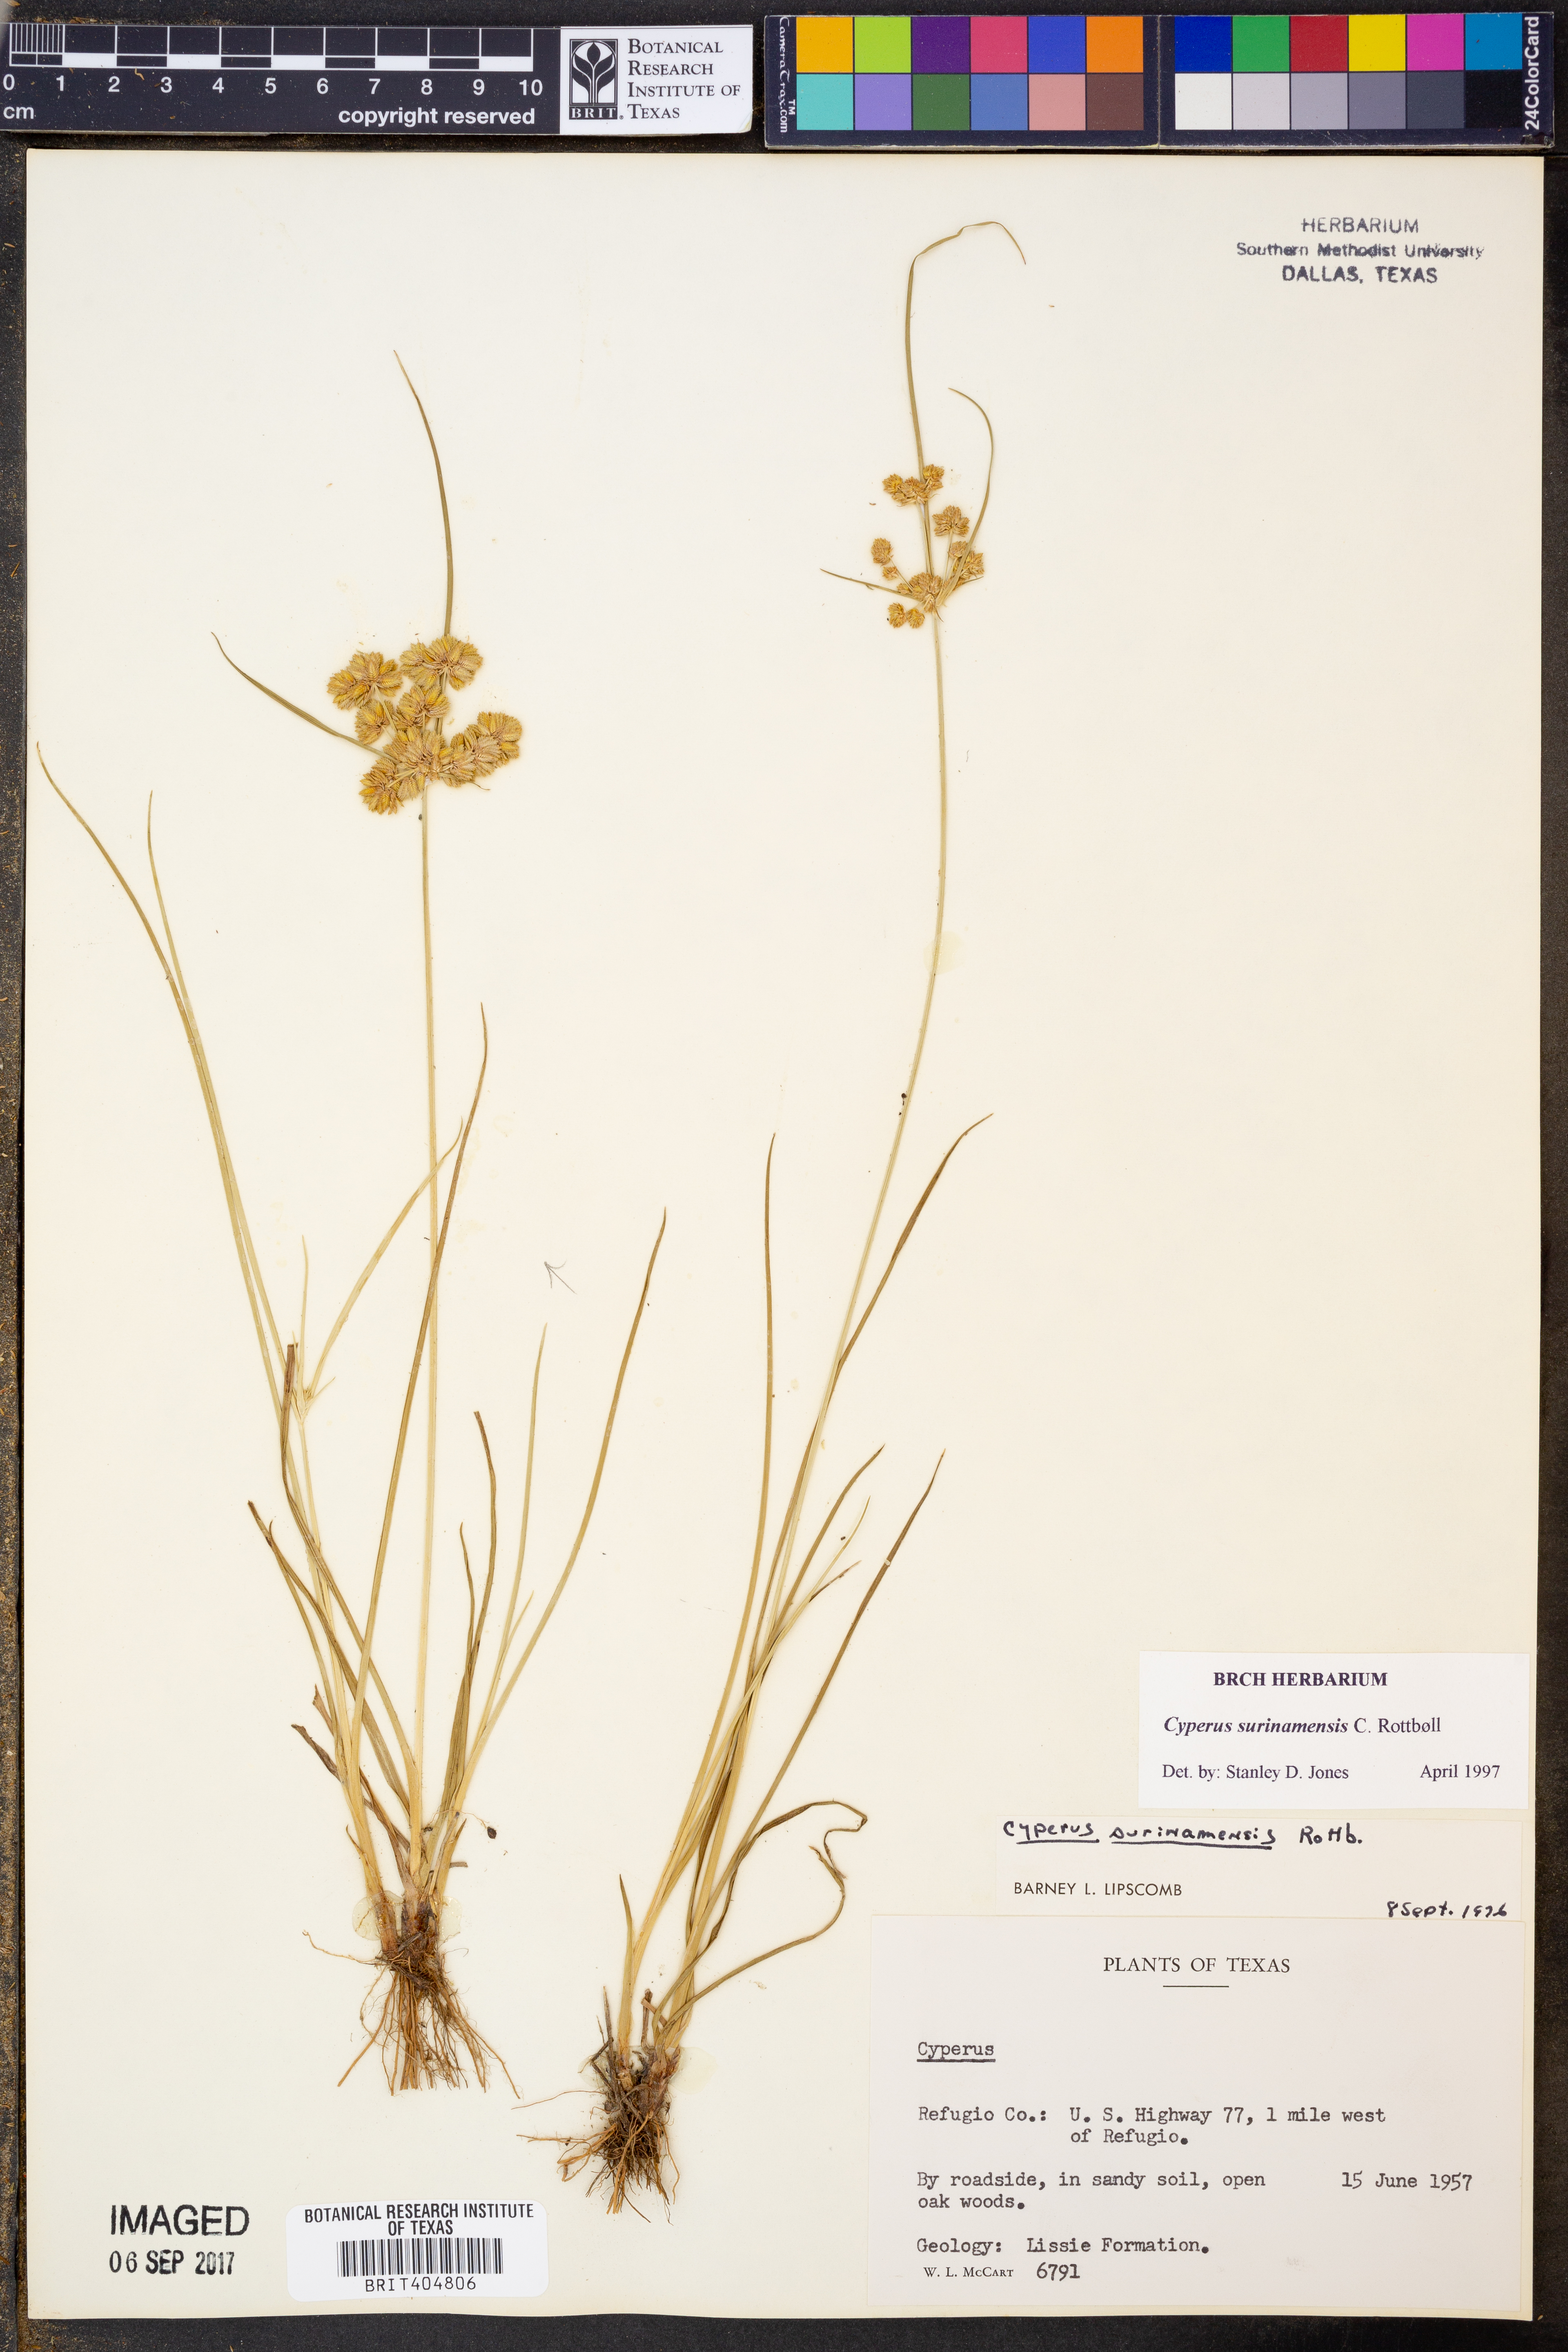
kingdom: Plantae
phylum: Tracheophyta
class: Liliopsida
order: Poales
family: Cyperaceae
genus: Cyperus
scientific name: Cyperus surinamensis
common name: Tropical flat sedge
